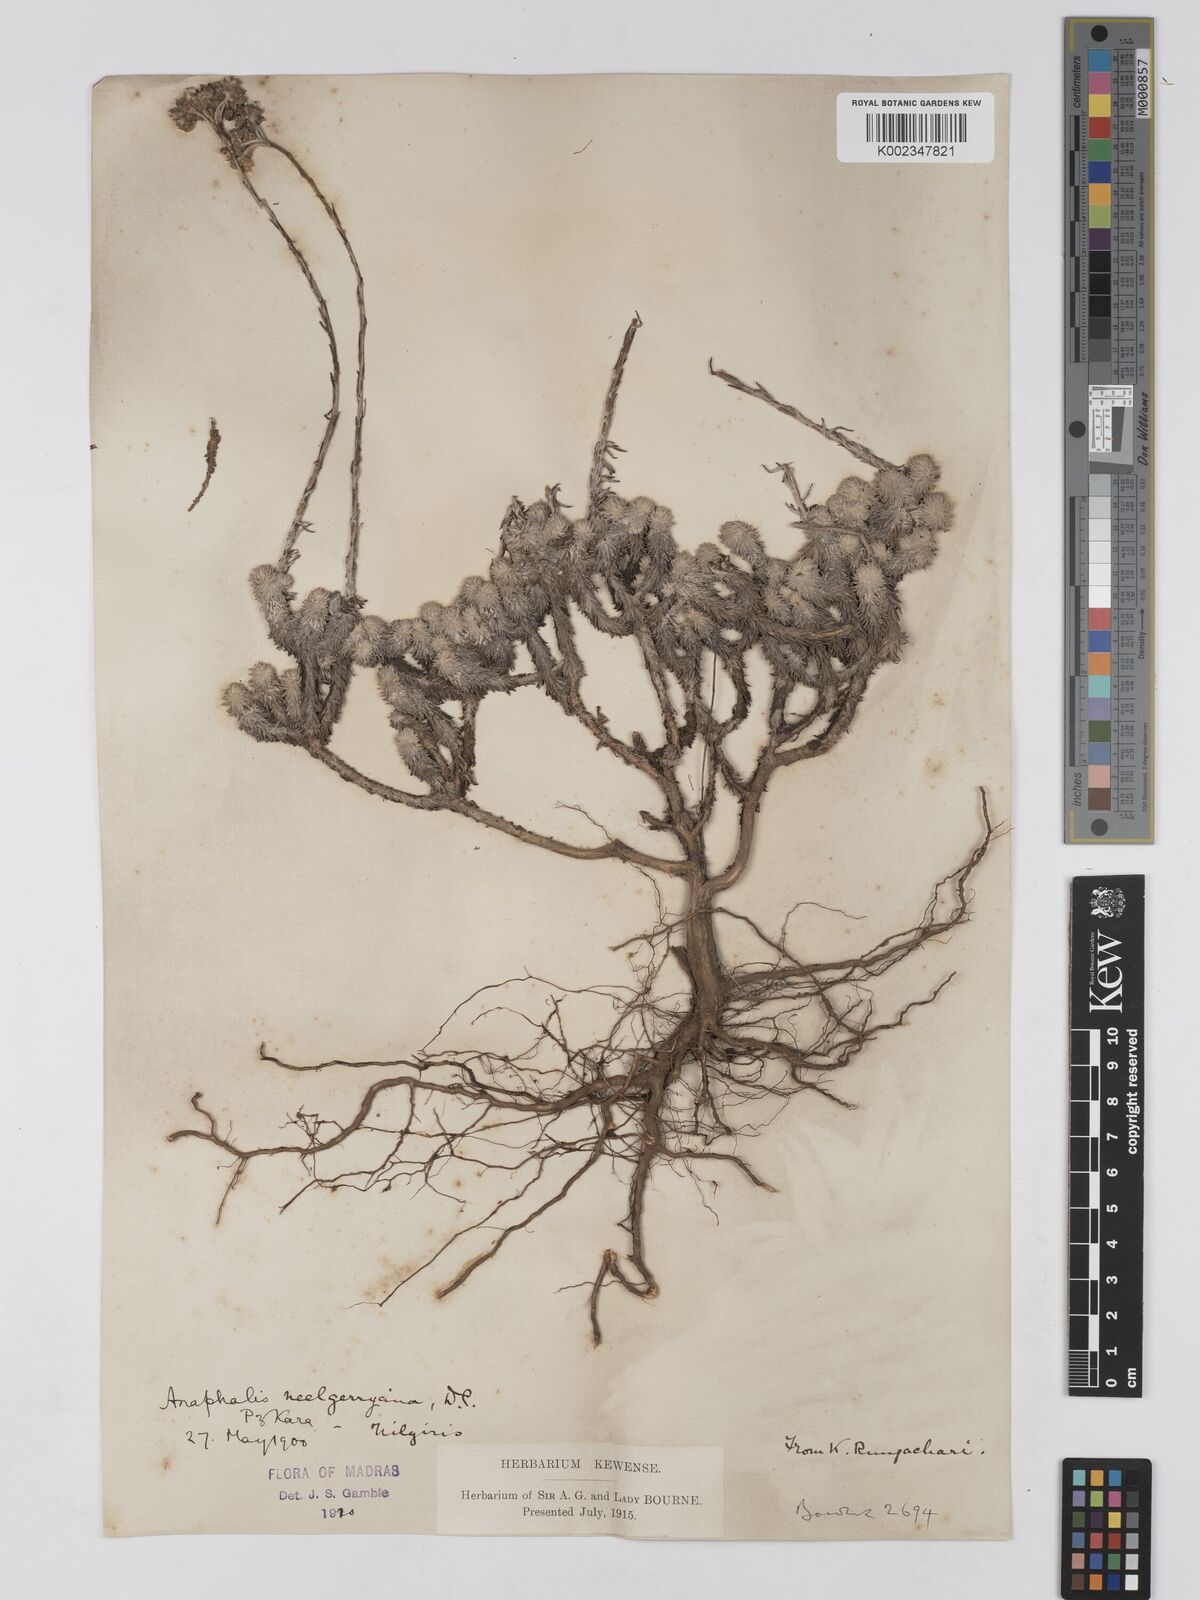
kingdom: Plantae
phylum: Tracheophyta
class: Magnoliopsida
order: Asterales
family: Asteraceae
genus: Anaphalis
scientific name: Anaphalis neelgerryana
